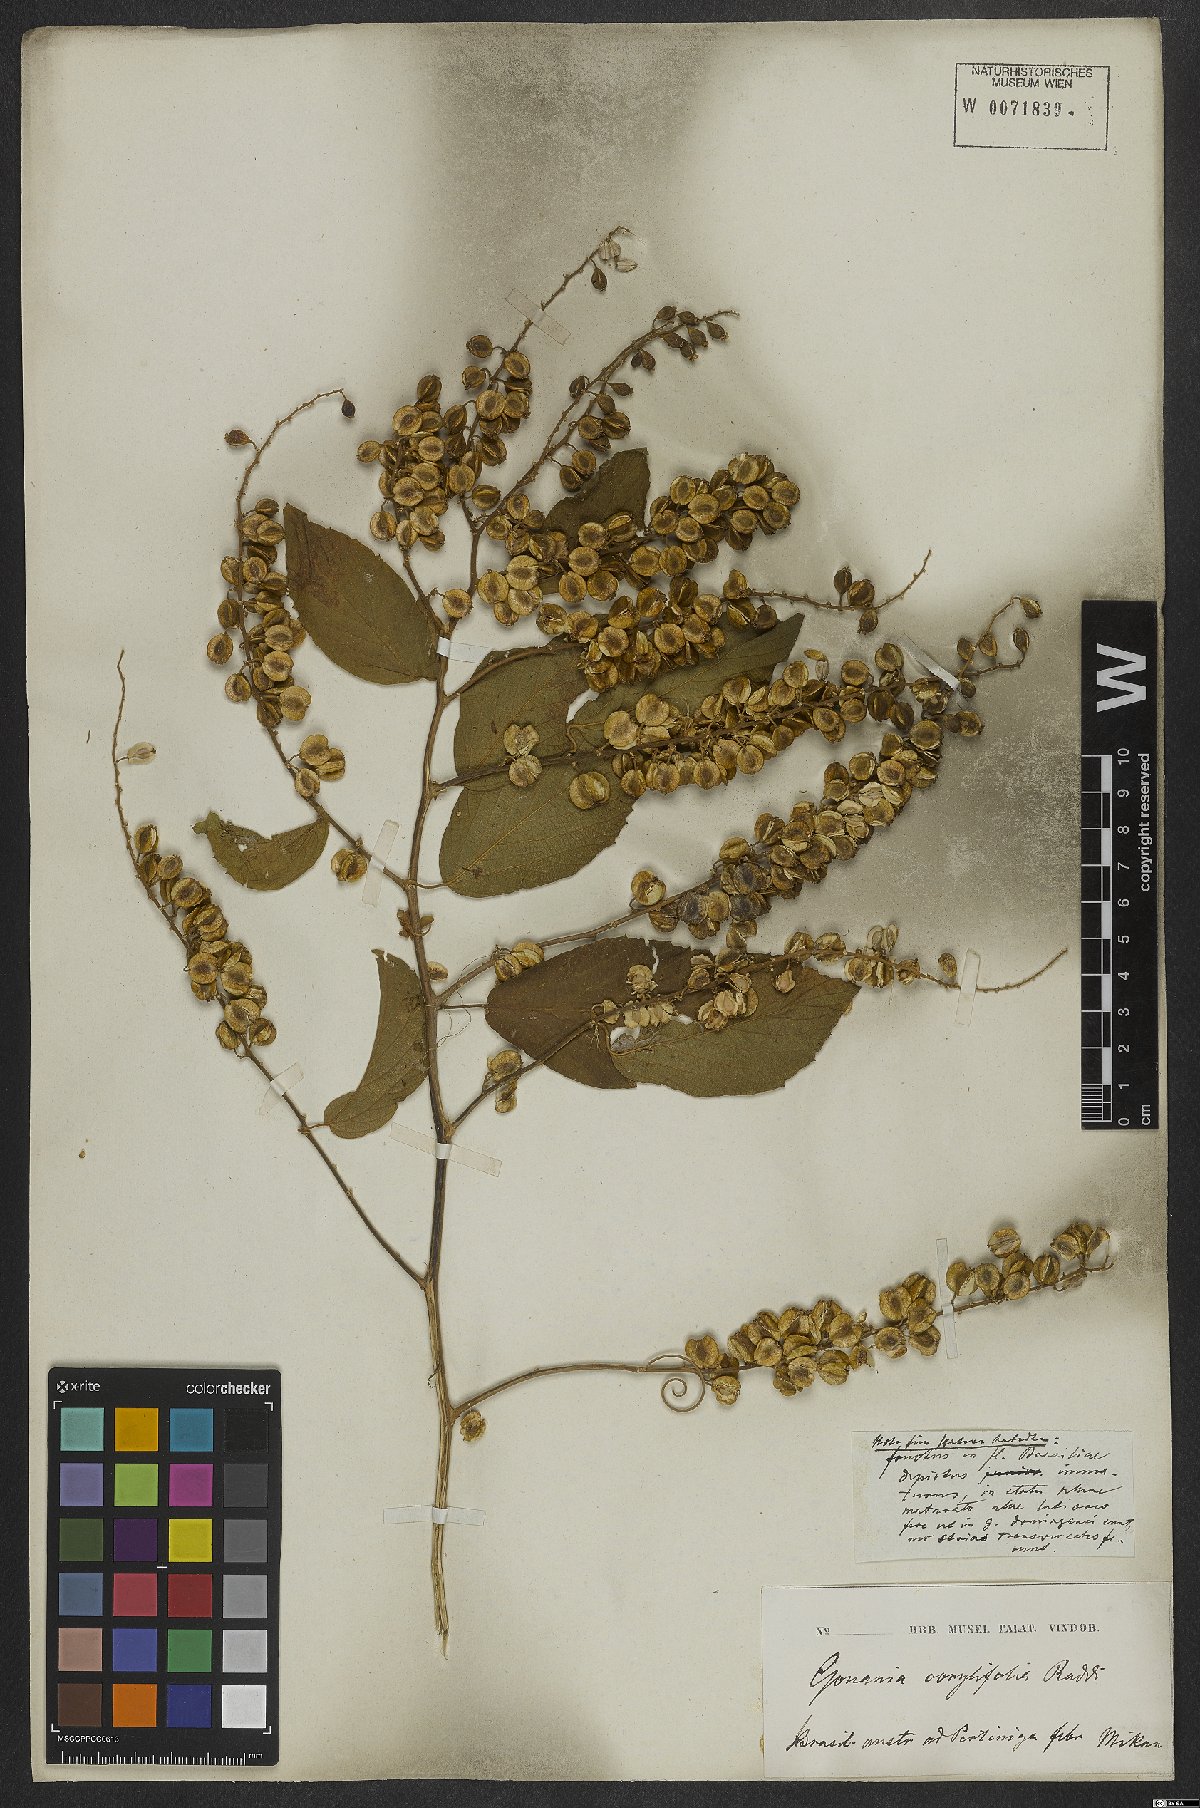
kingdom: Plantae
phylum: Tracheophyta
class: Magnoliopsida
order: Rosales
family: Rhamnaceae
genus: Gouania
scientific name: Gouania corylifolia
